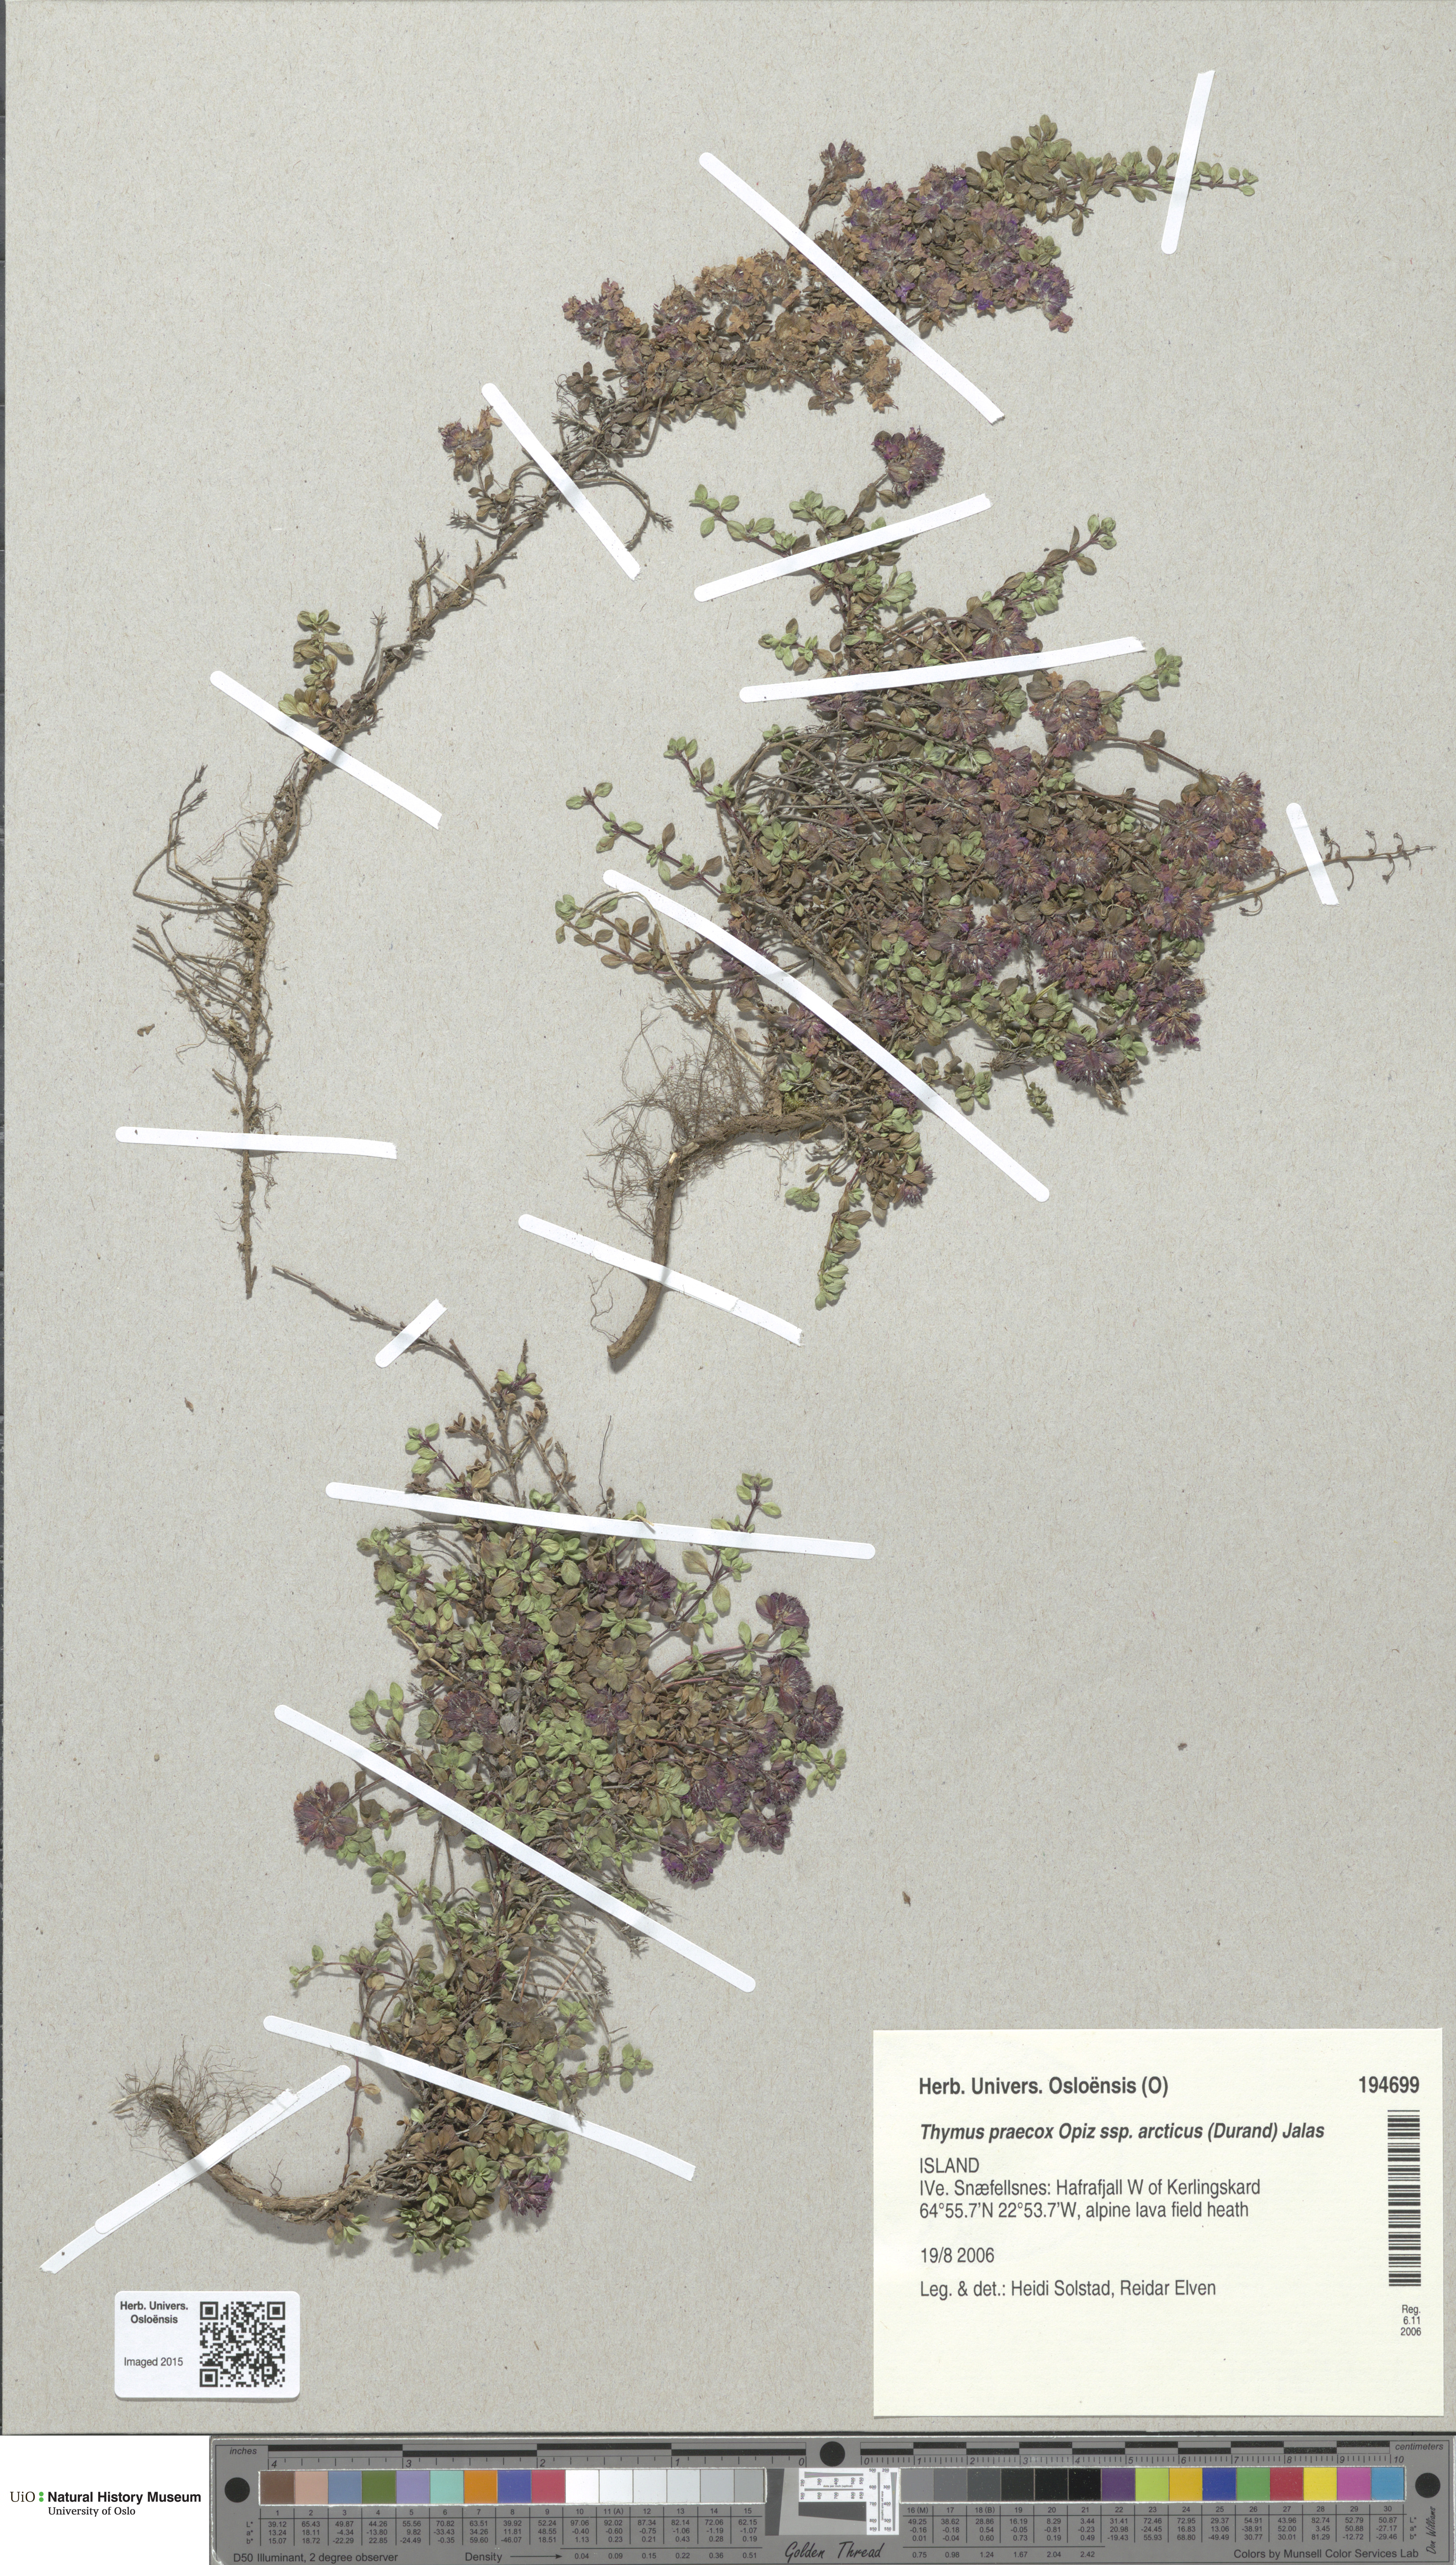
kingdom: Plantae
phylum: Tracheophyta
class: Magnoliopsida
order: Lamiales
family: Lamiaceae
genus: Thymus
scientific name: Thymus praecox
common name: Wild thyme
